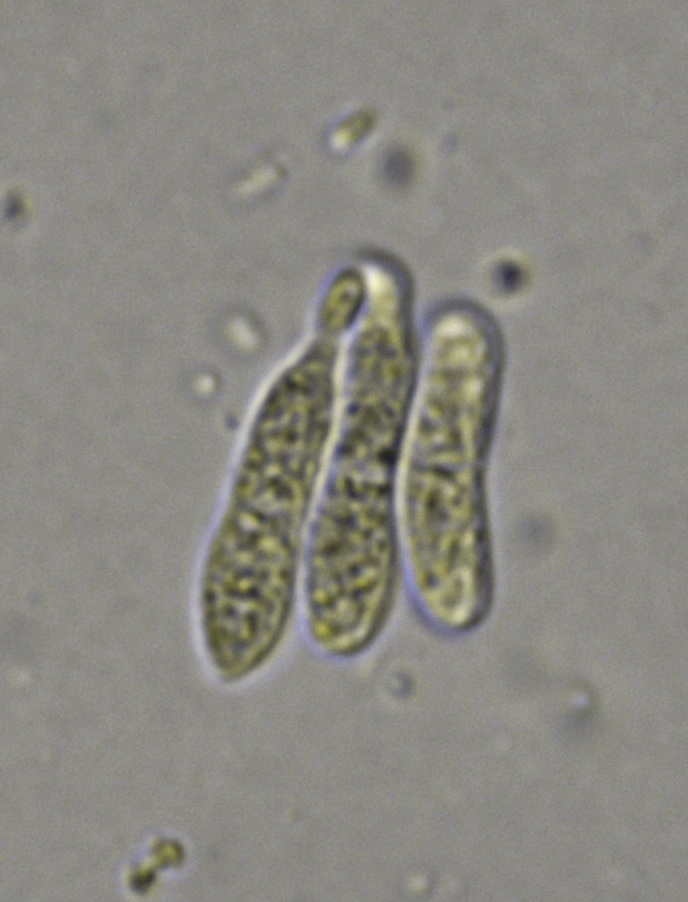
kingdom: Fungi
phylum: Ascomycota
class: Leotiomycetes
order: Helotiales
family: Calloriaceae
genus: Calloria
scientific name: Calloria urticae
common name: nælde-orangeskive
